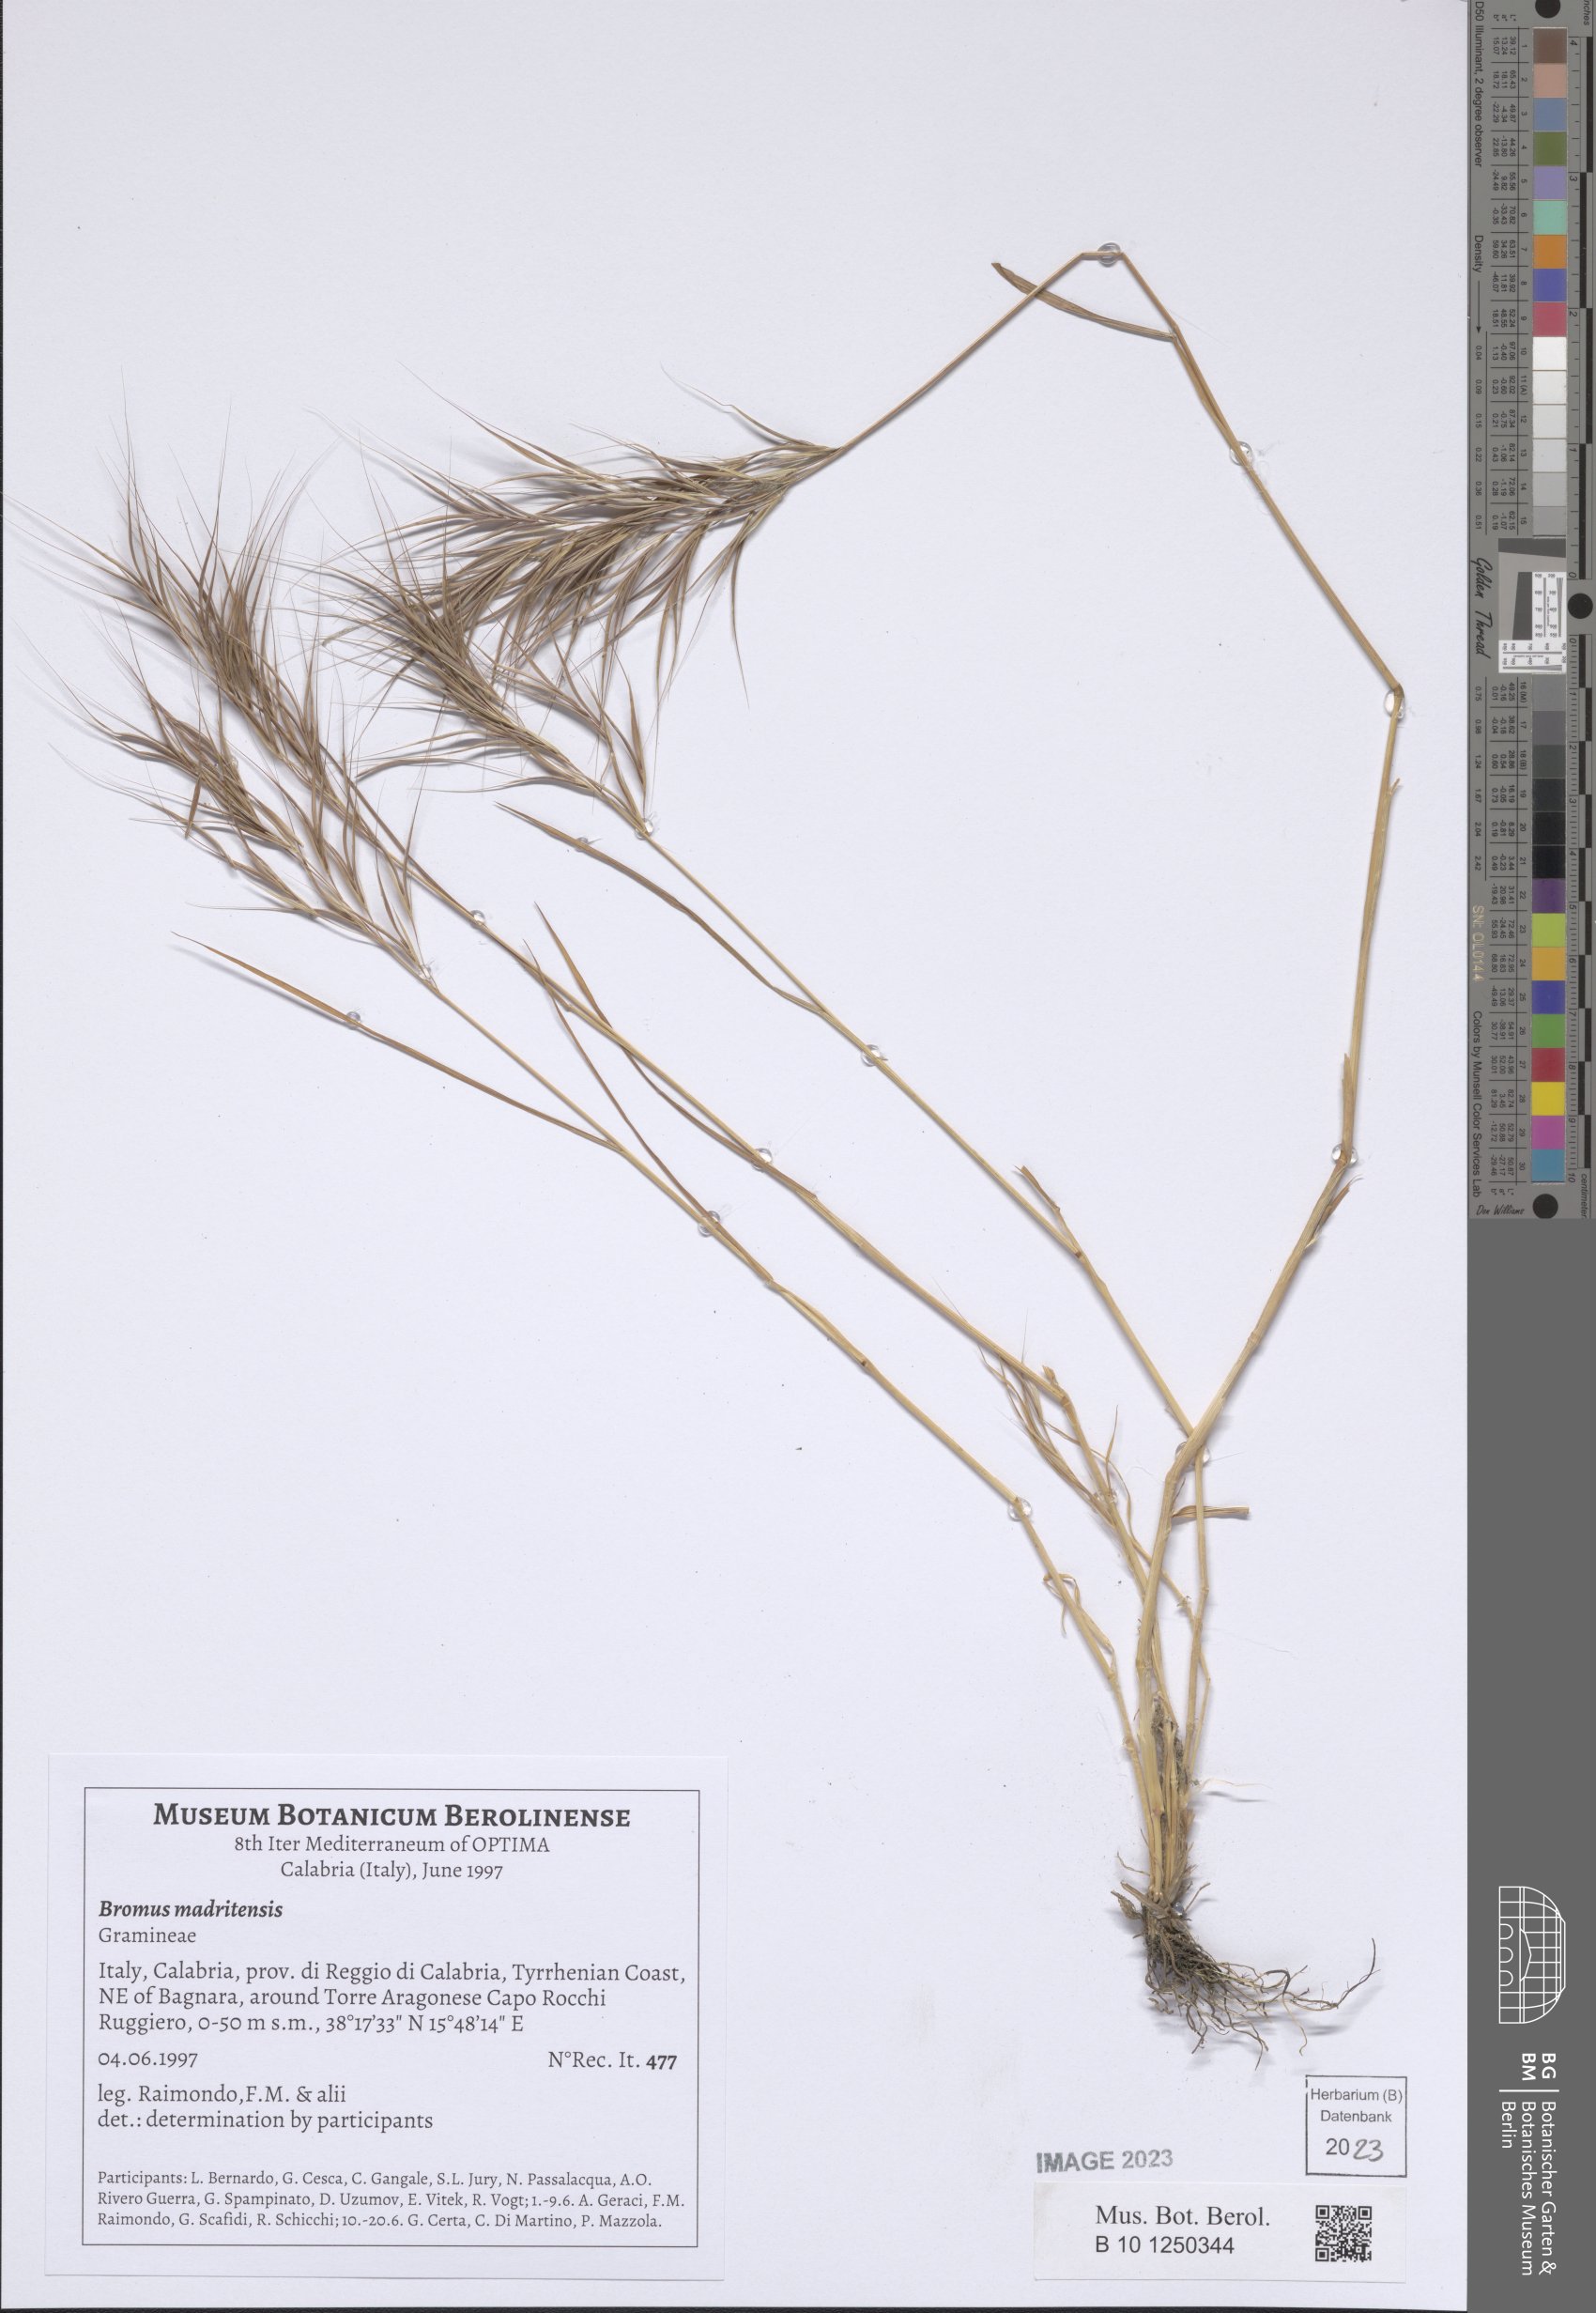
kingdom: Plantae
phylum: Tracheophyta
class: Liliopsida
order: Poales
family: Poaceae
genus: Bromus
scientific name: Bromus madritensis
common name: Compact brome
